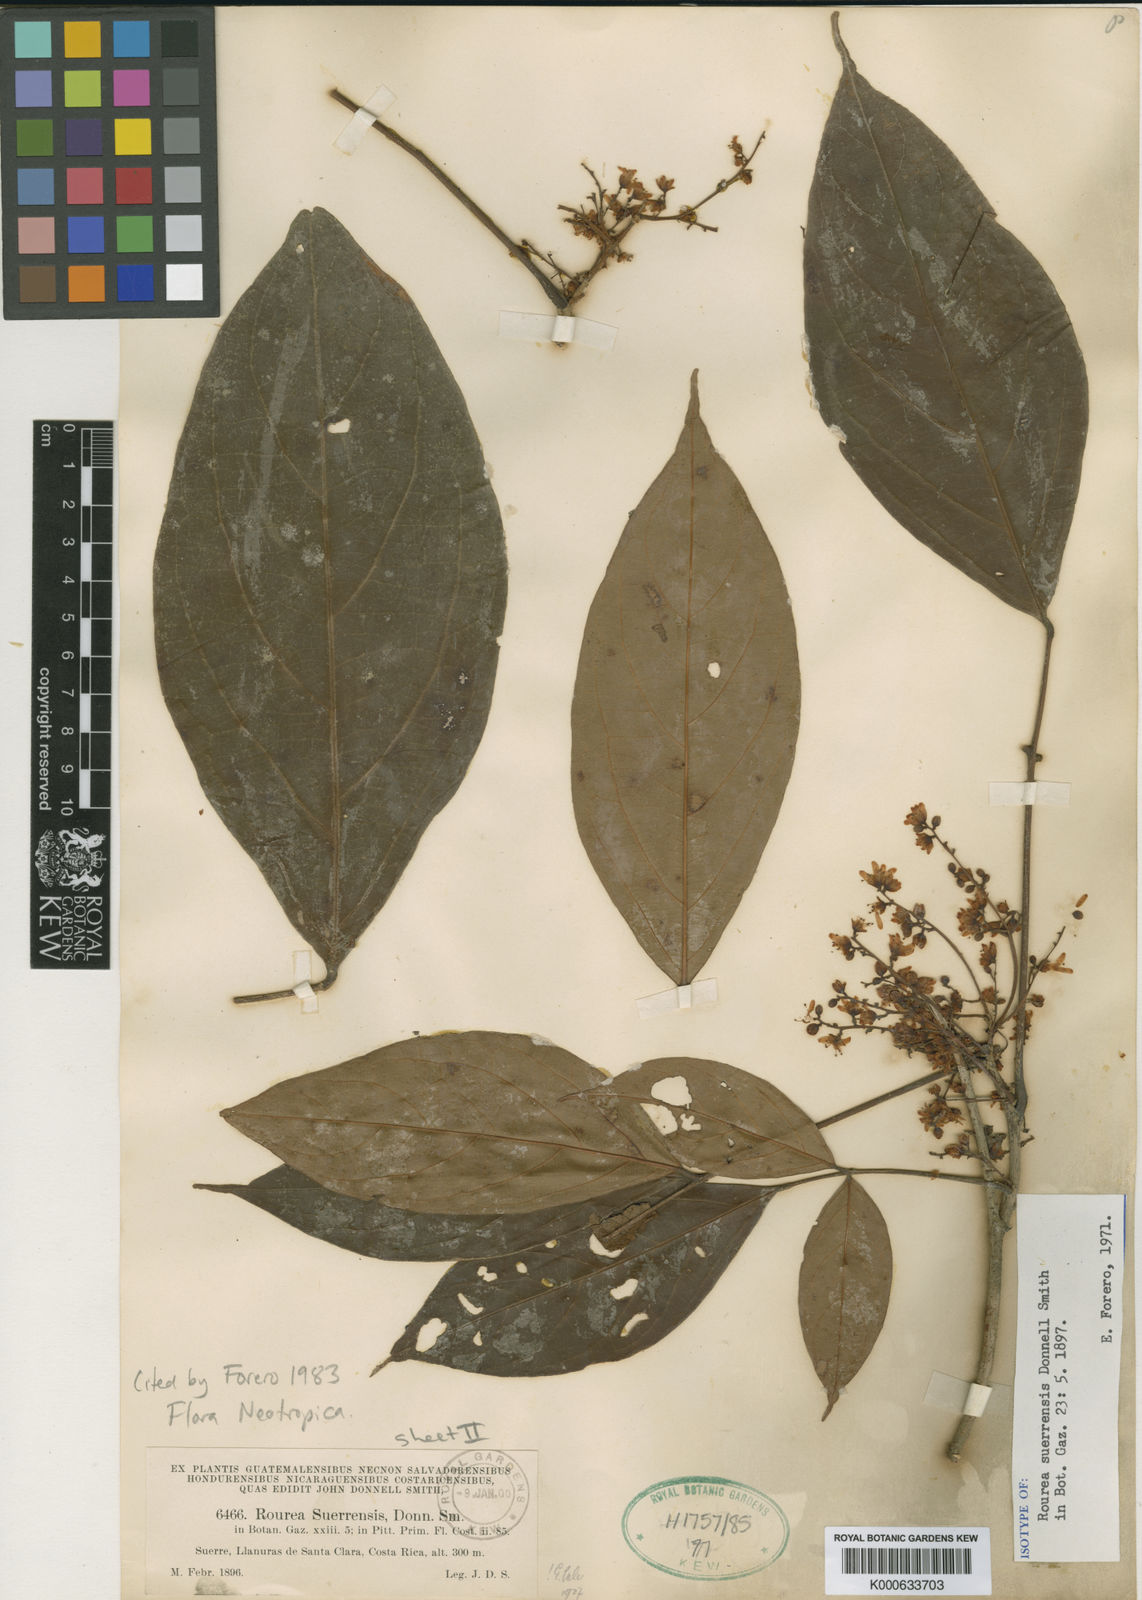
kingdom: Plantae
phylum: Tracheophyta
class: Magnoliopsida
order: Oxalidales
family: Connaraceae
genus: Rourea
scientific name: Rourea suerrensis
